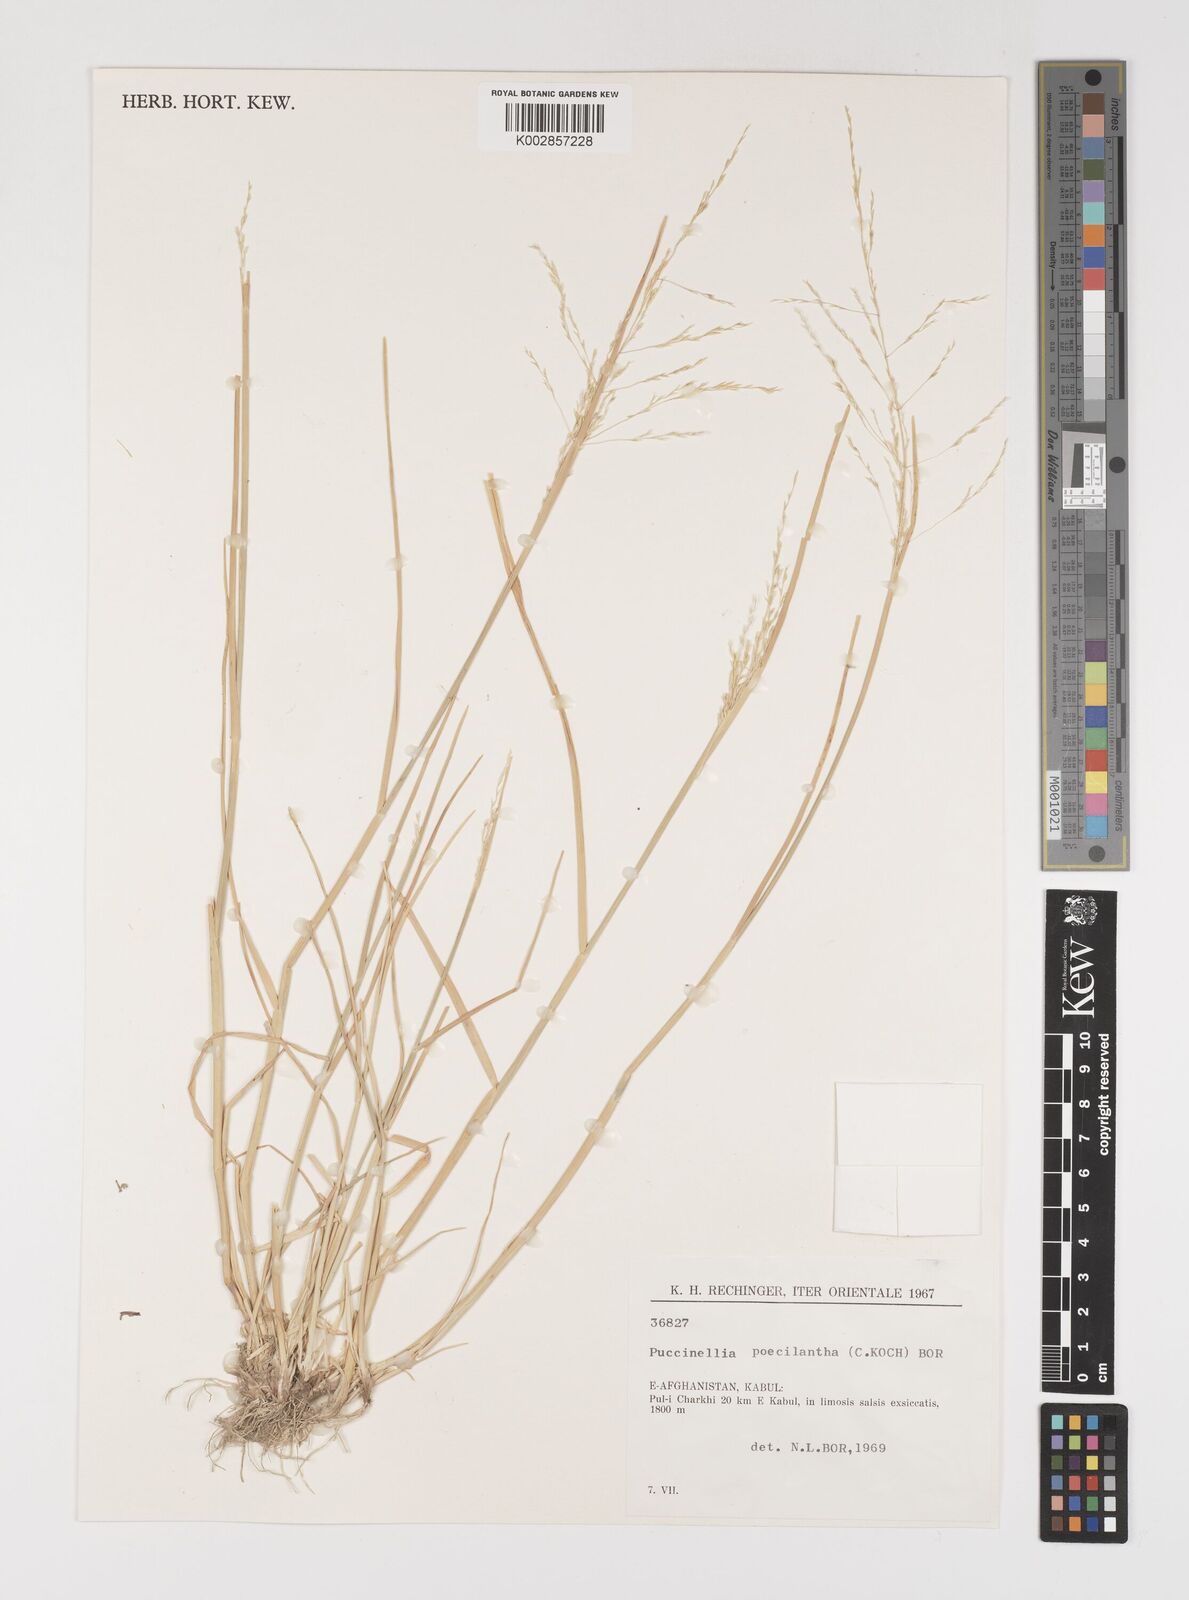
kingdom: Plantae
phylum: Tracheophyta
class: Liliopsida
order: Poales
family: Poaceae
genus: Puccinellia
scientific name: Puccinellia poecilantha
